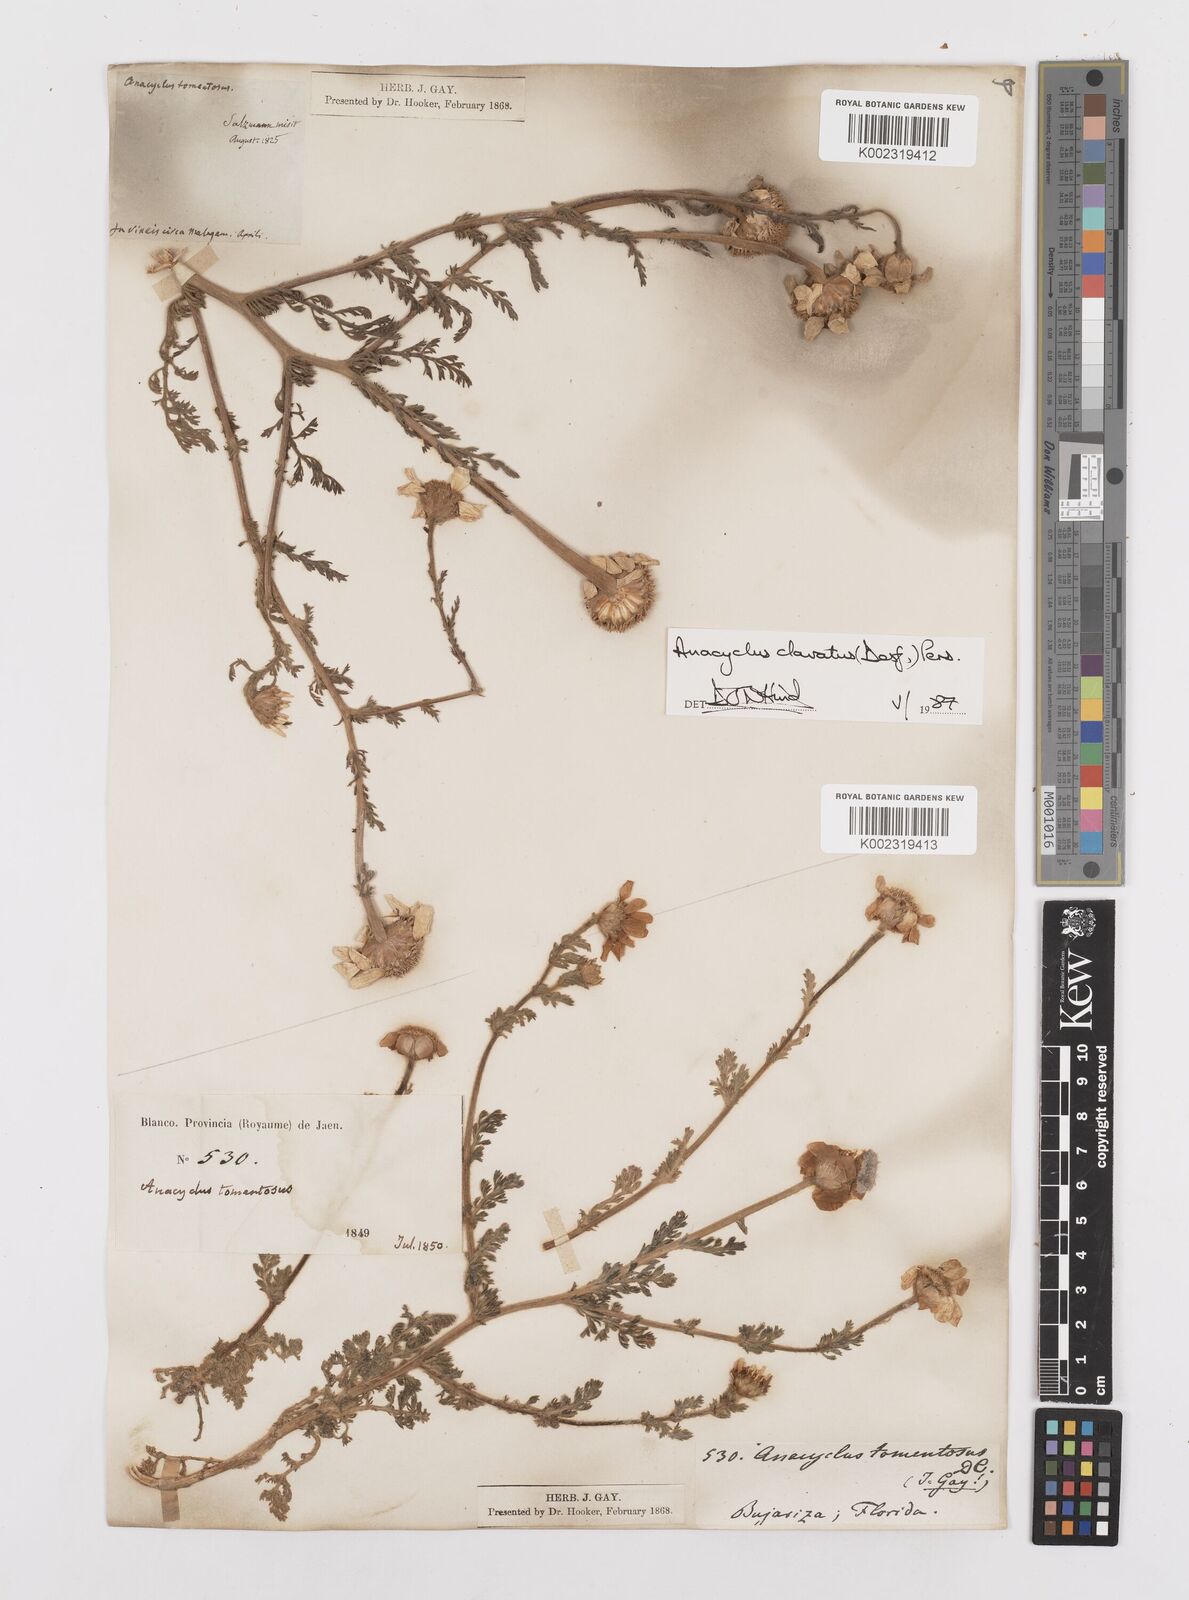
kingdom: Plantae
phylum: Tracheophyta
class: Magnoliopsida
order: Asterales
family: Asteraceae
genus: Anacyclus
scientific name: Anacyclus clavatus
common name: Whitebuttons
